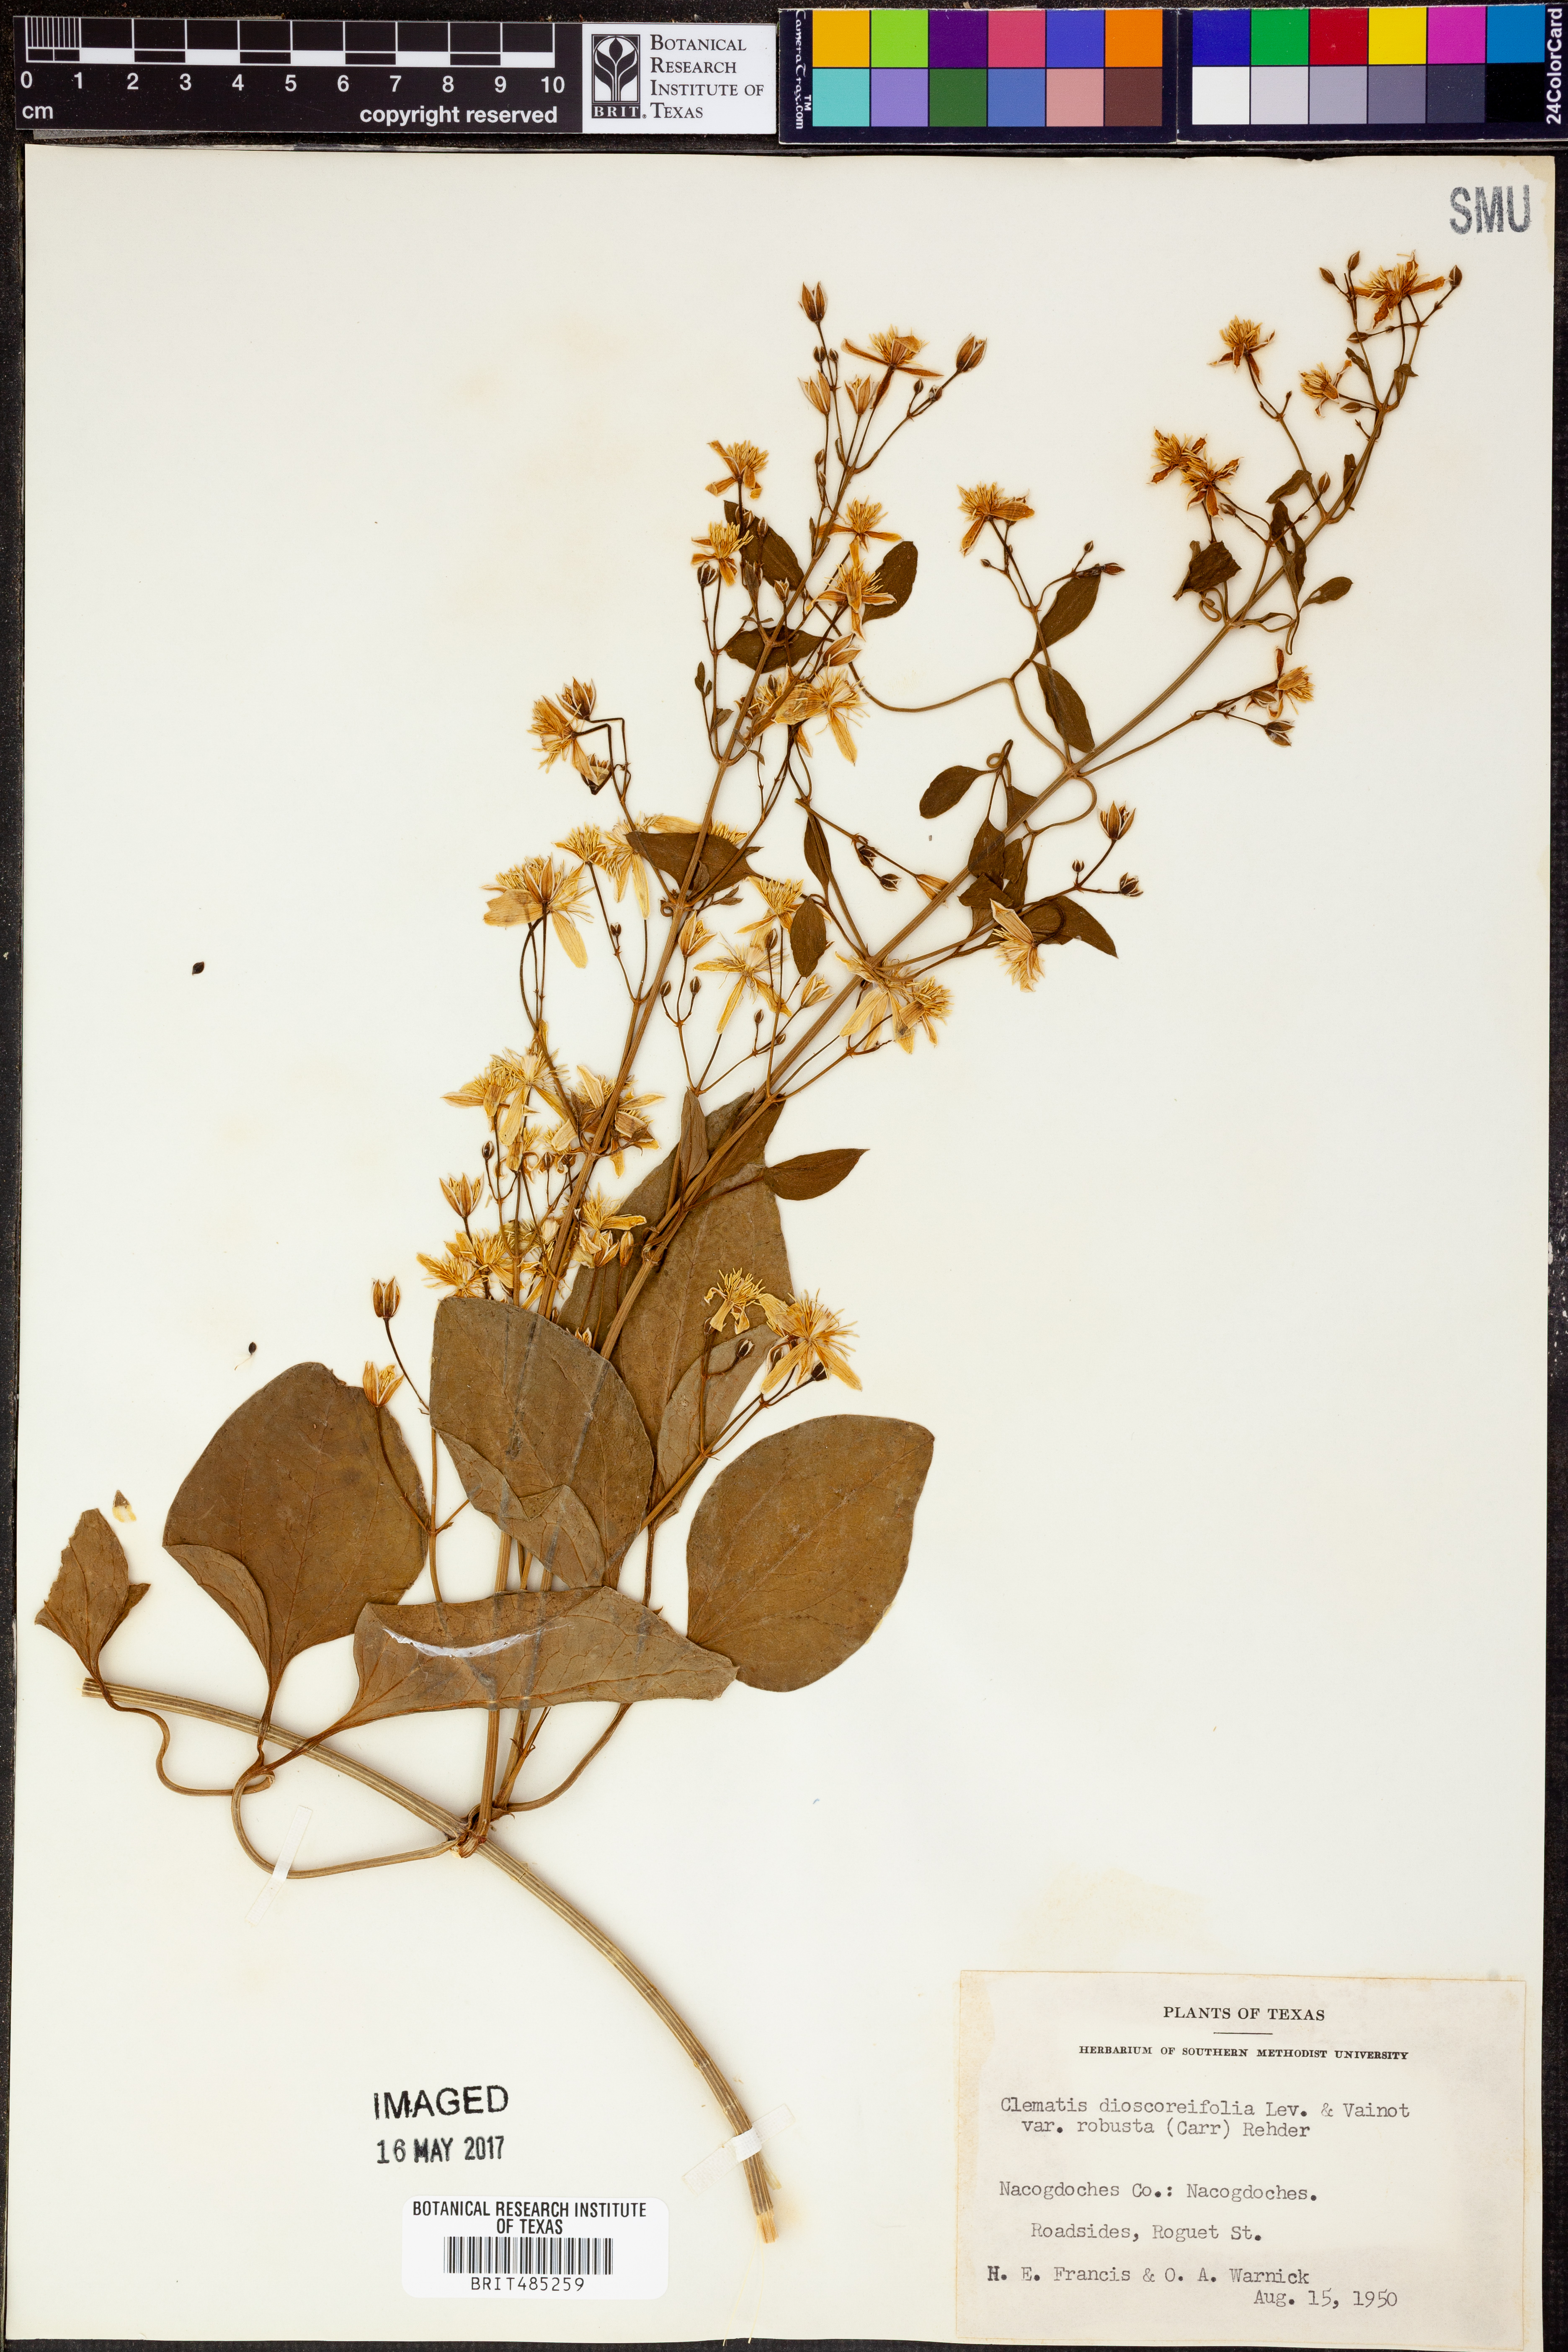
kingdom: Plantae
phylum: Tracheophyta
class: Magnoliopsida
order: Ranunculales
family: Ranunculaceae
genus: Clematis
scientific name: Clematis terniflora
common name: Sweet autumn clematis
